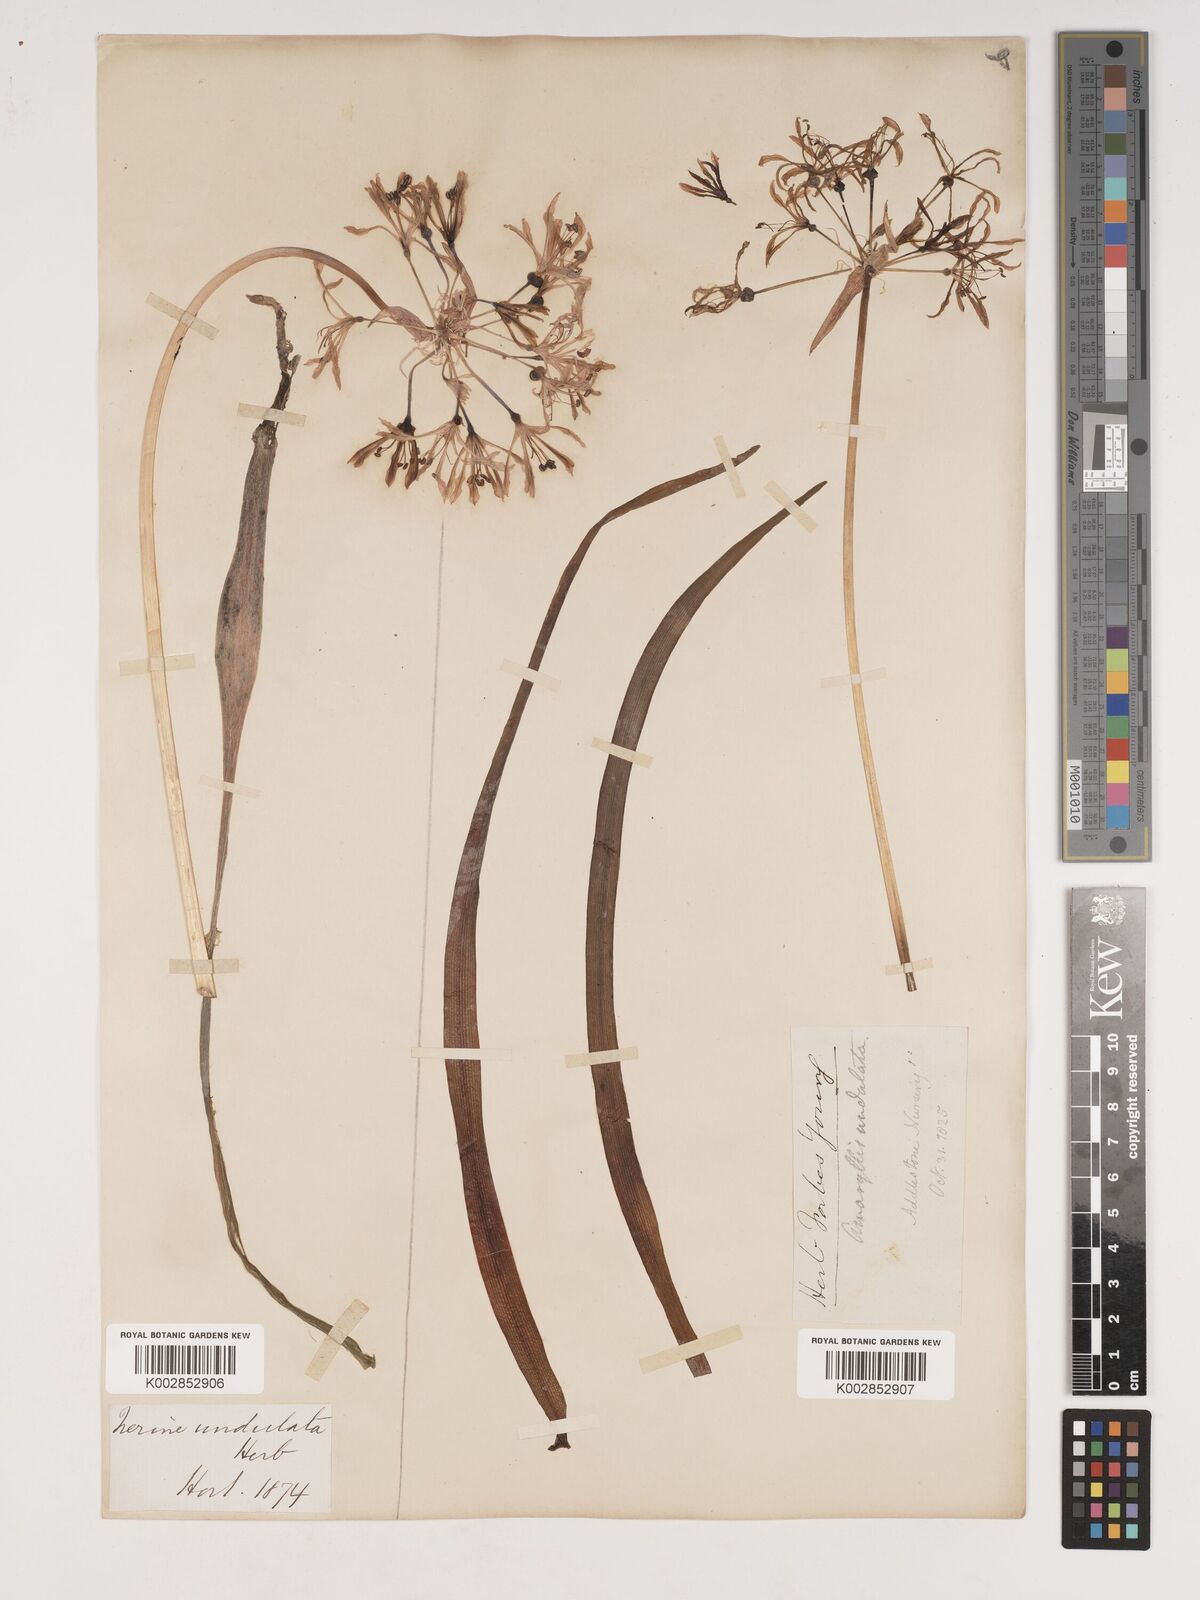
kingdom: Plantae
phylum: Tracheophyta
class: Liliopsida
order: Asparagales
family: Amaryllidaceae
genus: Nerine
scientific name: Nerine undulata
